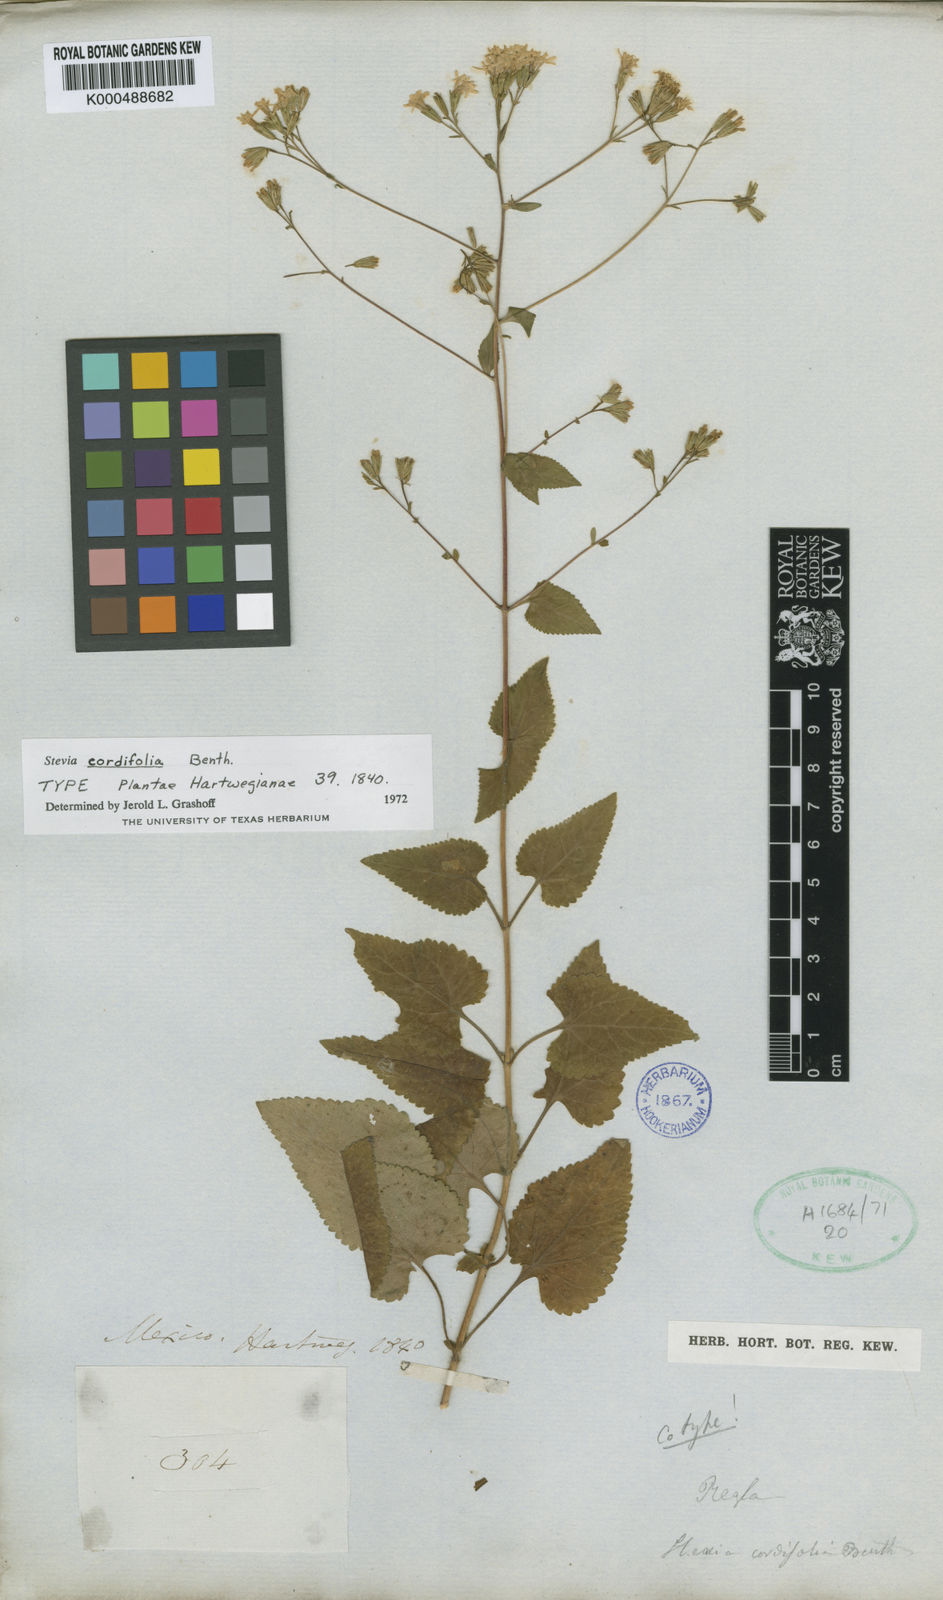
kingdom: Plantae
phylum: Tracheophyta
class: Magnoliopsida
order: Asterales
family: Asteraceae
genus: Stevia
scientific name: Stevia cordifolia
